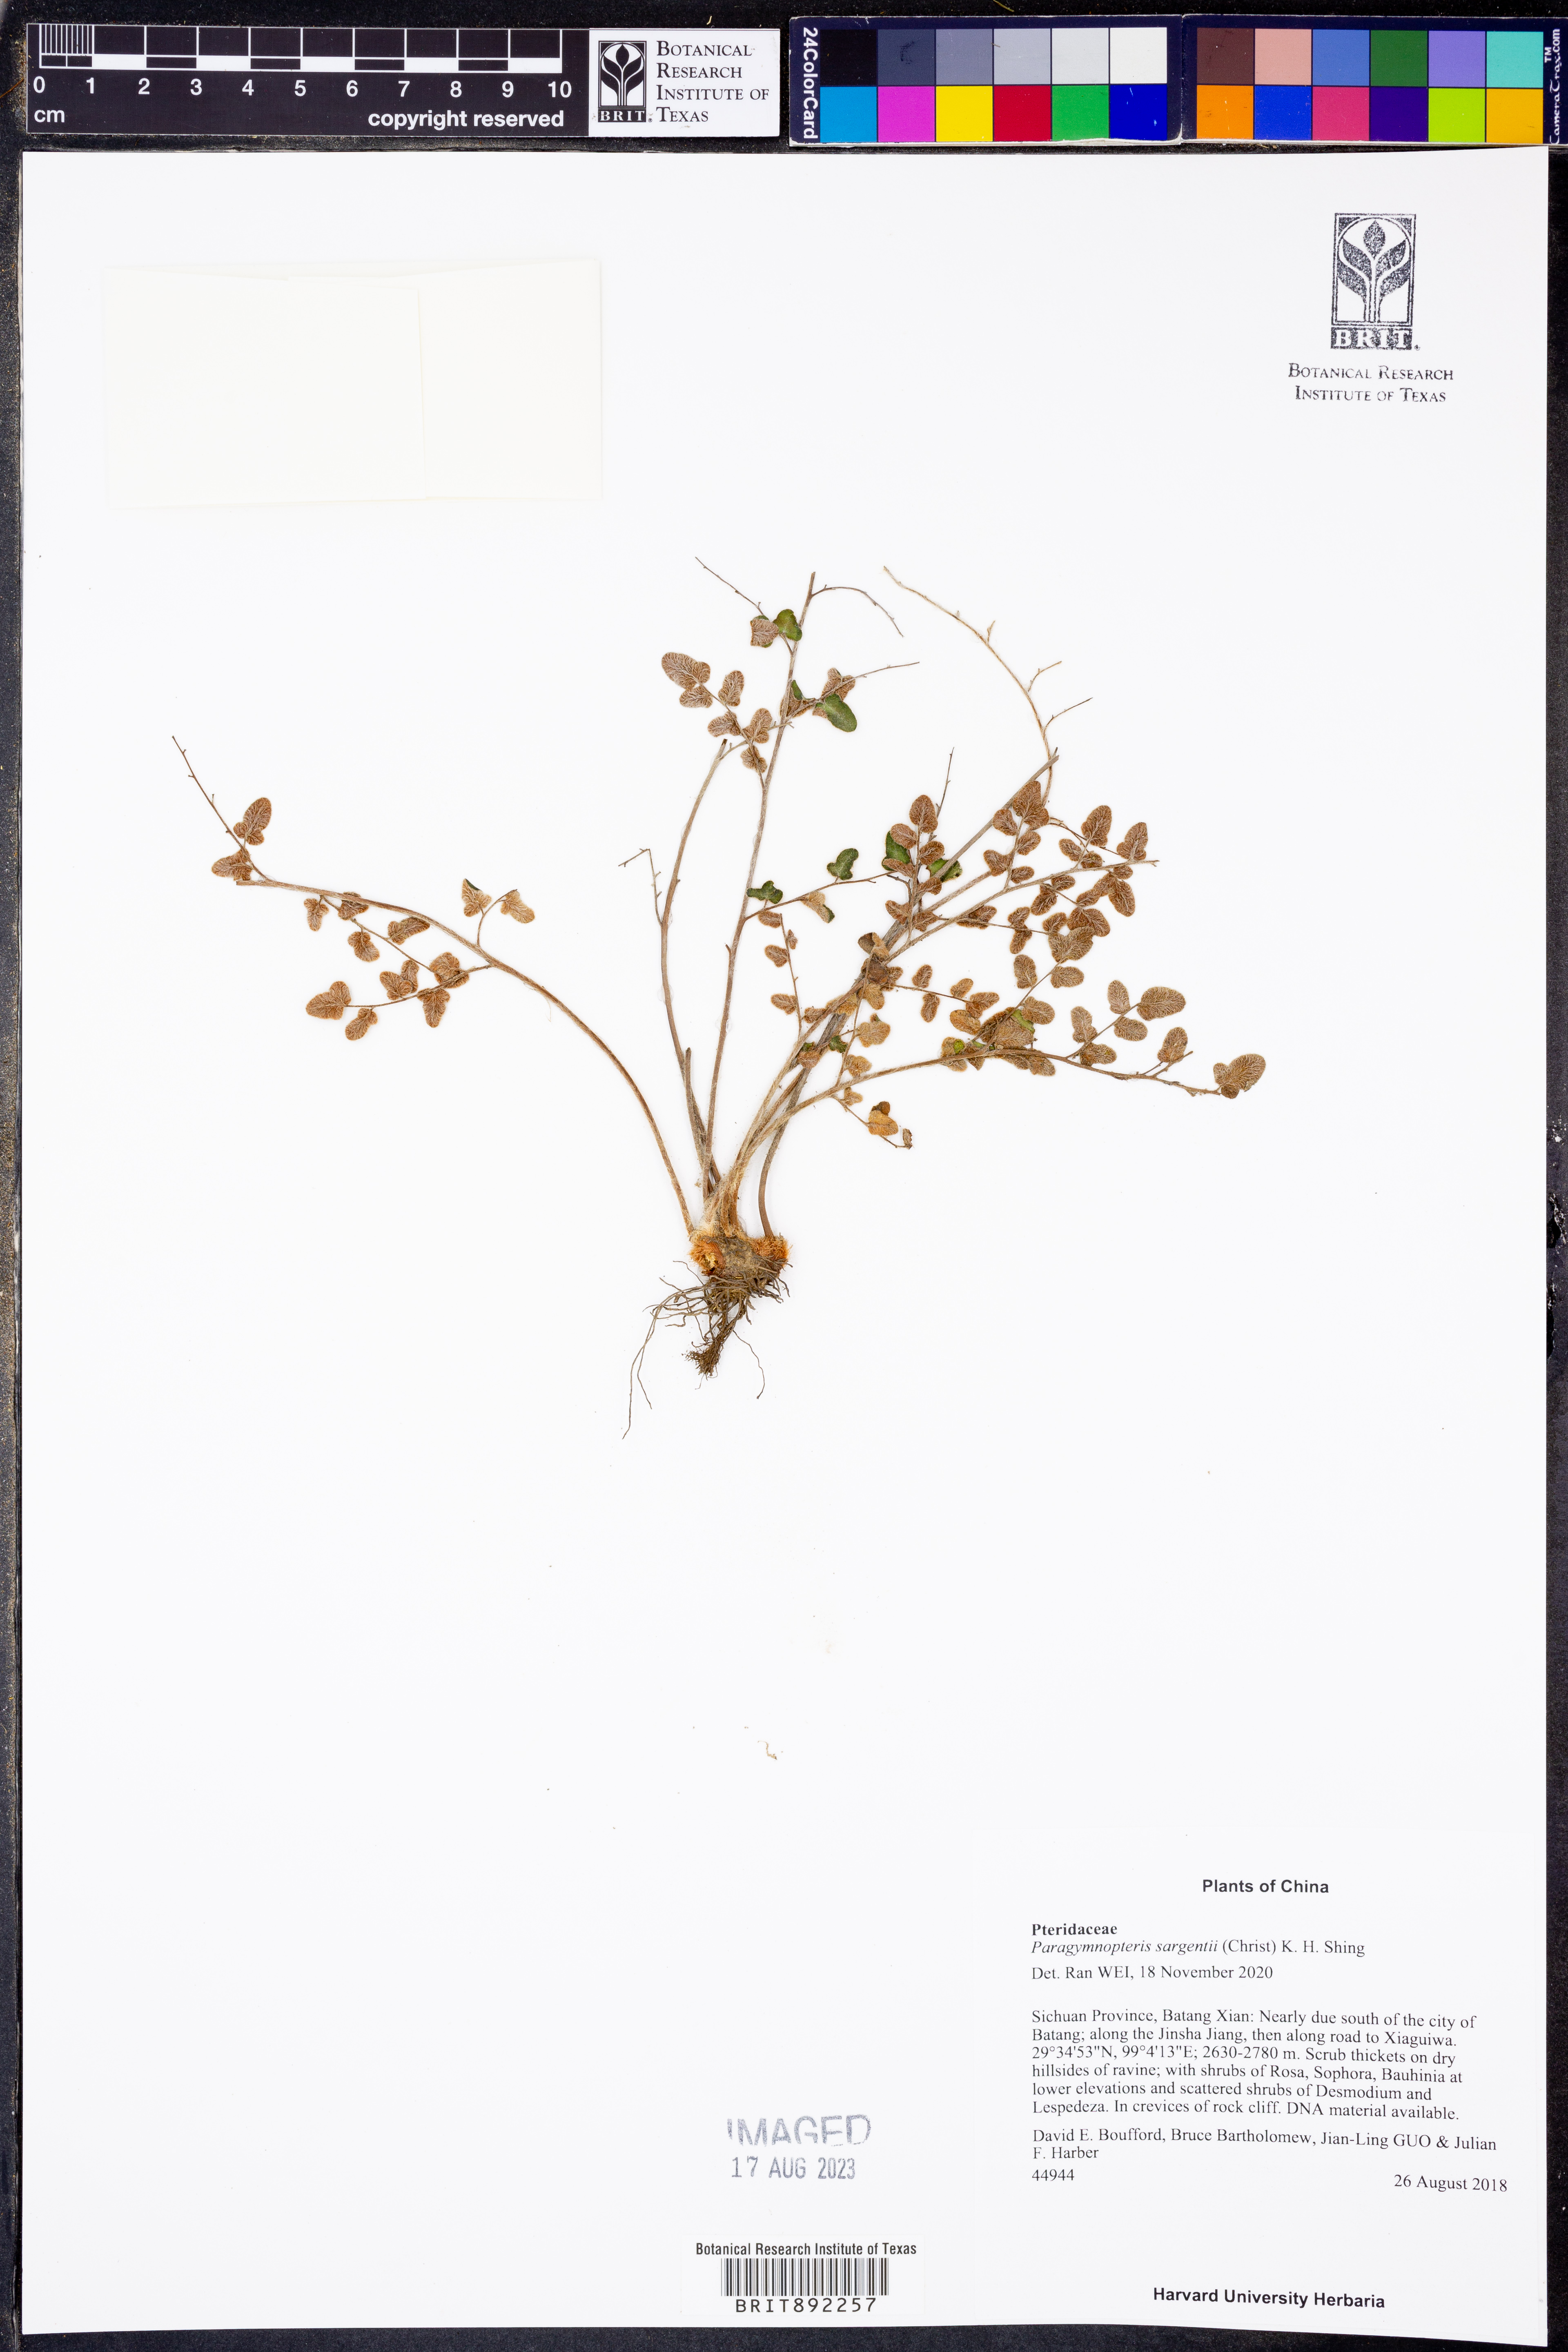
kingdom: Plantae
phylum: Tracheophyta
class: Polypodiopsida
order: Polypodiales
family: Pteridaceae
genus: Paragymnopteris
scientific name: Paragymnopteris sargentii
